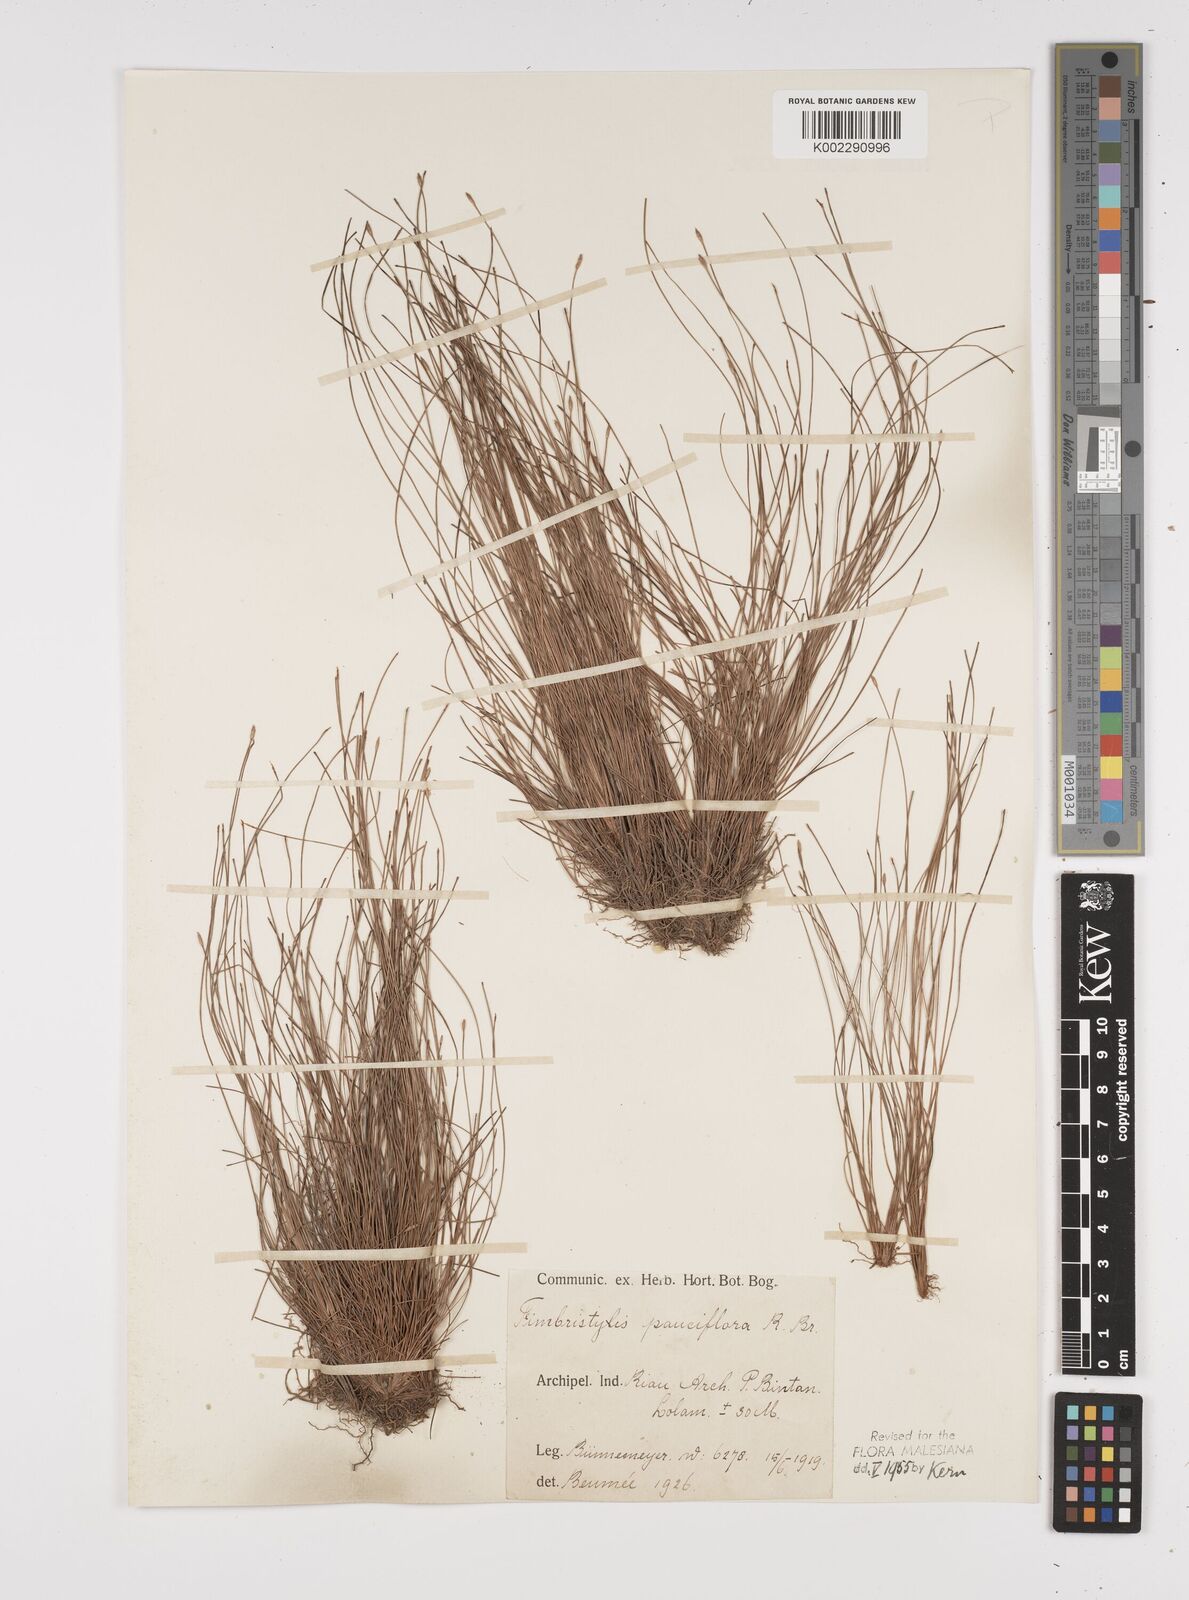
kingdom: Plantae
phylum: Tracheophyta
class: Liliopsida
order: Poales
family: Cyperaceae
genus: Fimbristylis
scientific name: Fimbristylis pauciflora
